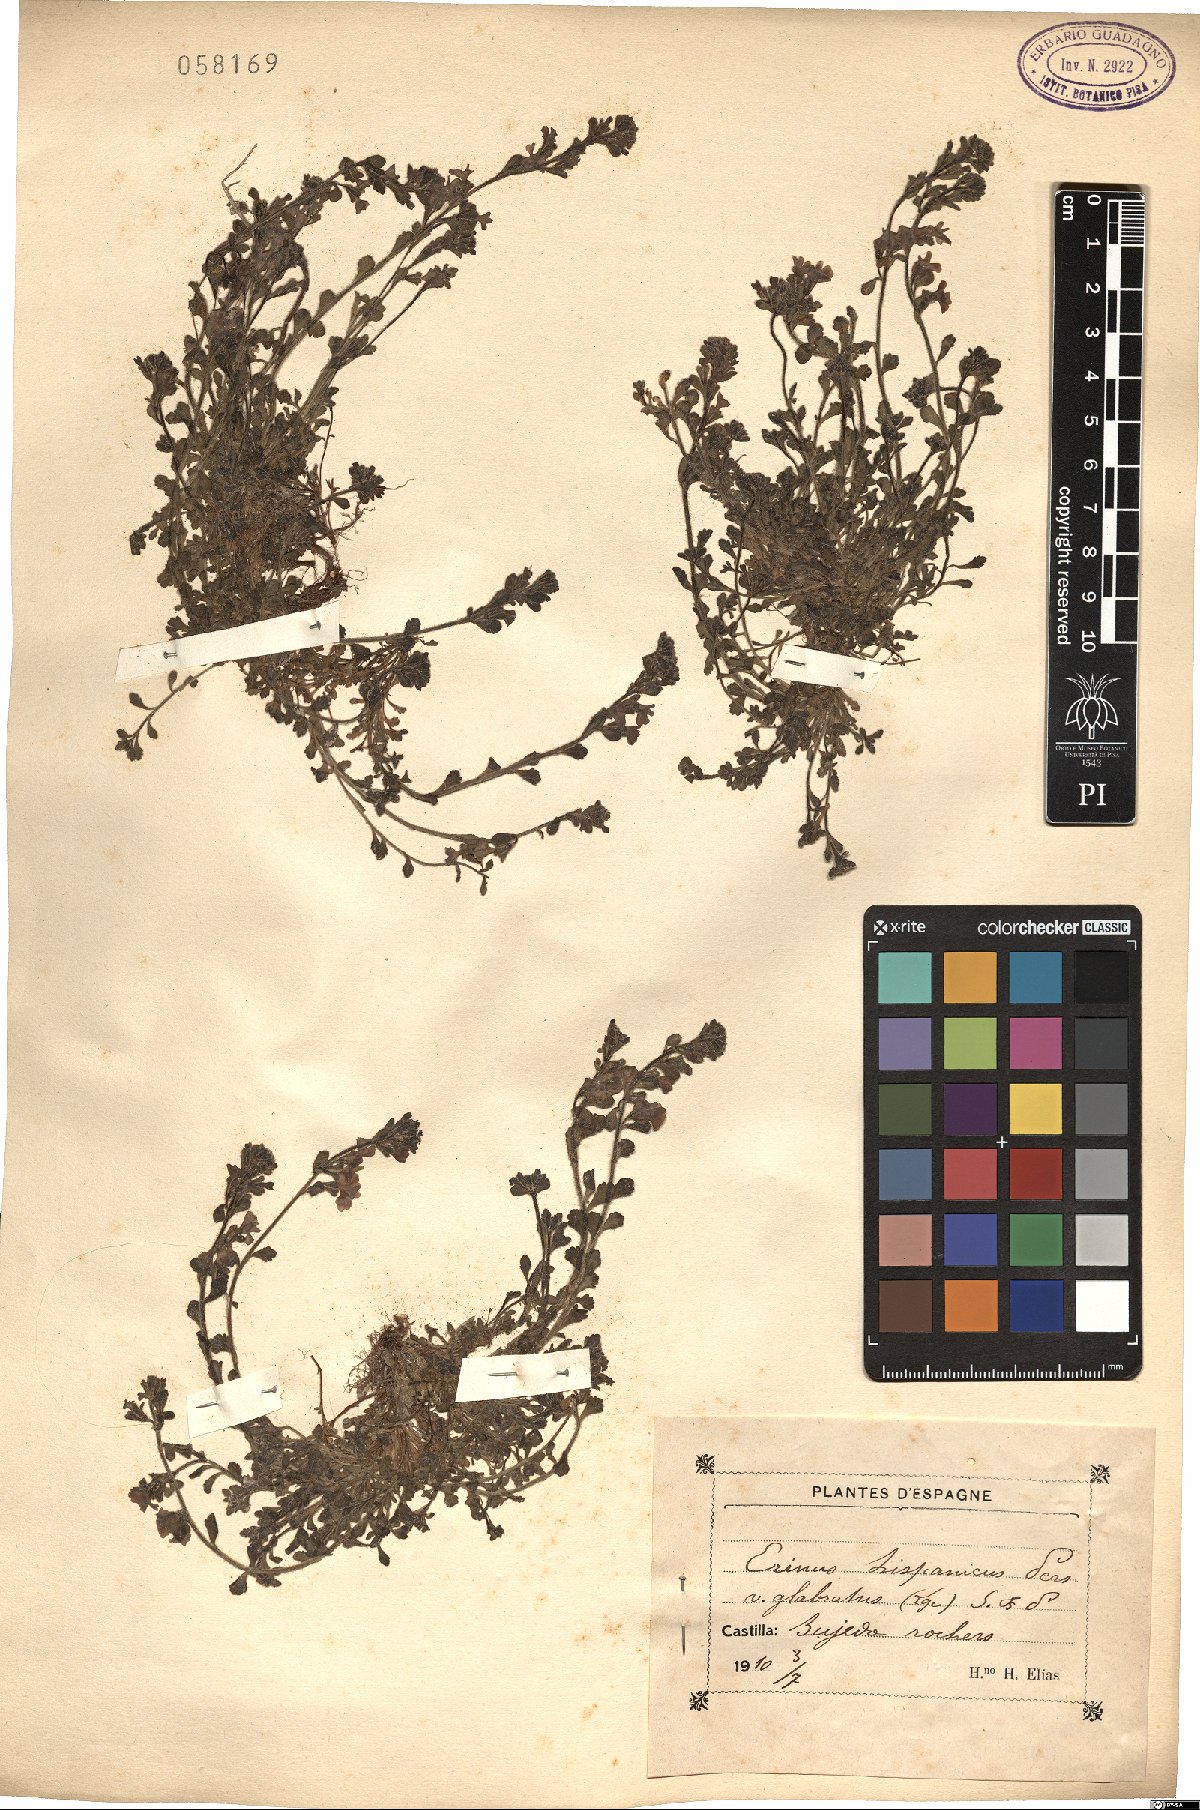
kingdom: Plantae
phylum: Tracheophyta
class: Magnoliopsida
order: Lamiales
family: Plantaginaceae
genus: Erinus
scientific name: Erinus alpinus
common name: Fairy foxglove
